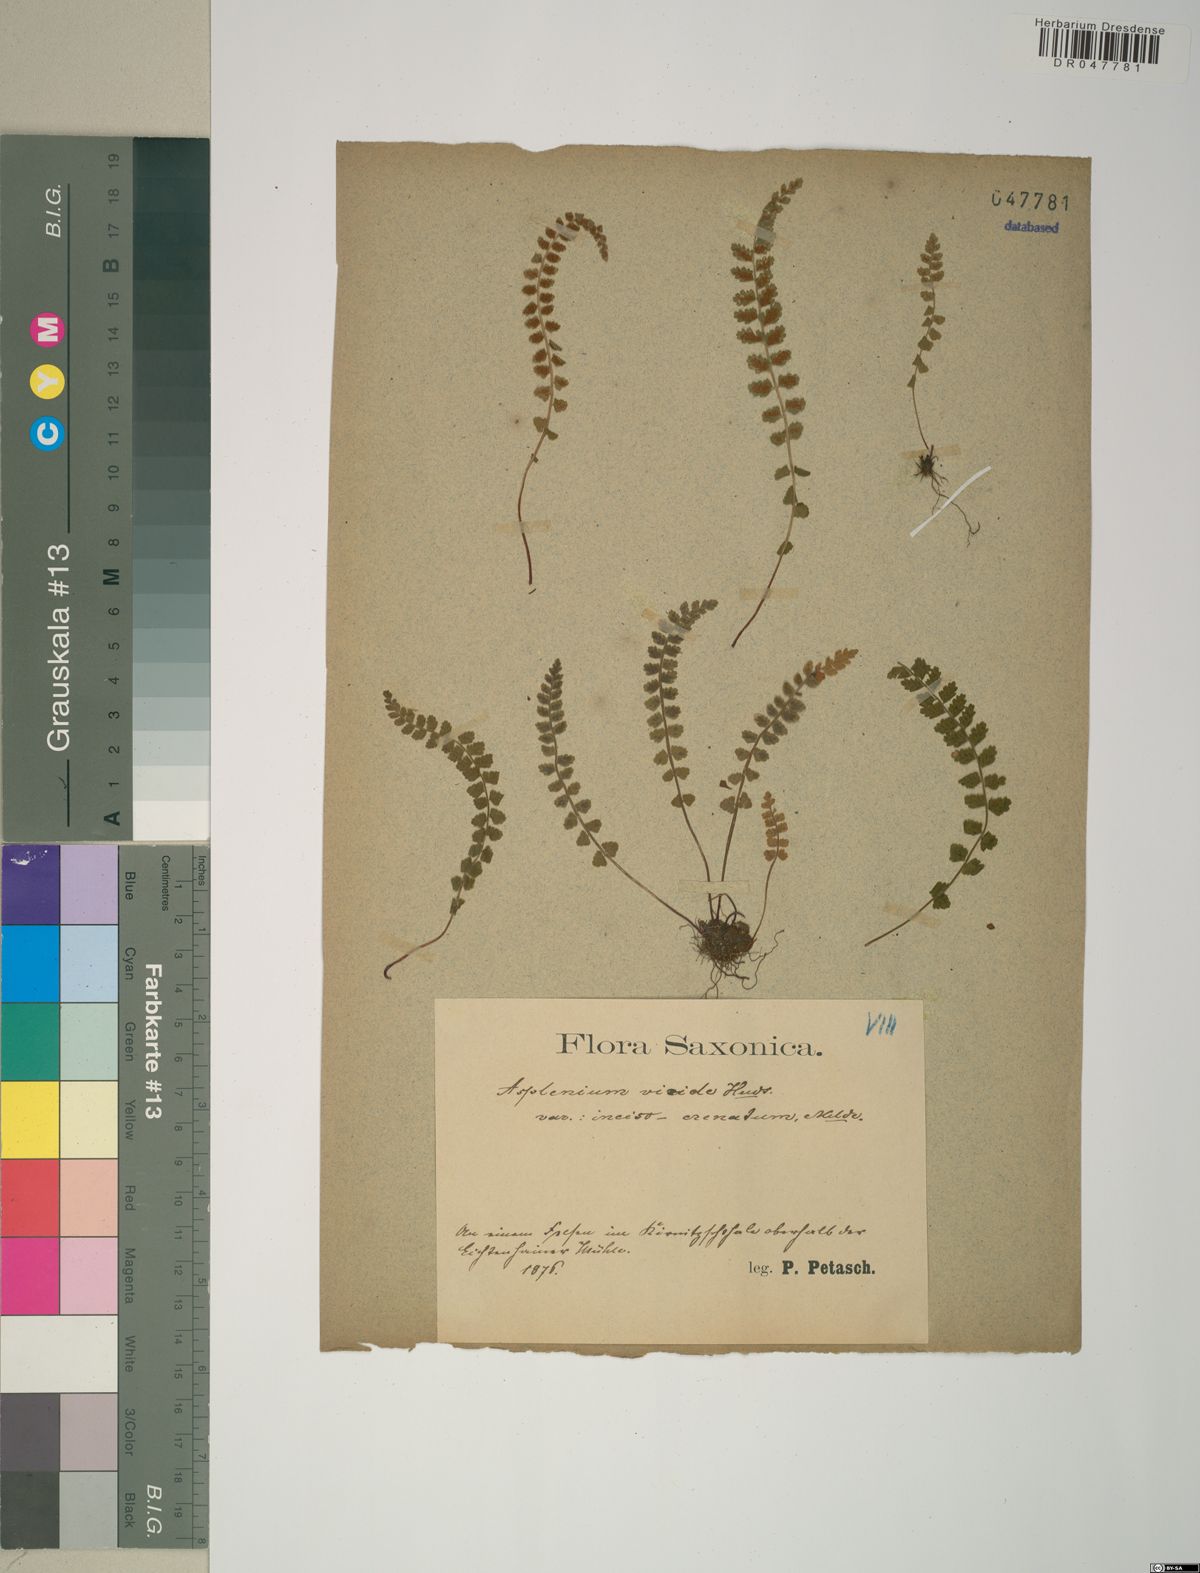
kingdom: Plantae
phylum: Tracheophyta
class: Polypodiopsida
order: Polypodiales
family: Aspleniaceae
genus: Asplenium
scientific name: Asplenium viride
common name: Green spleenwort
